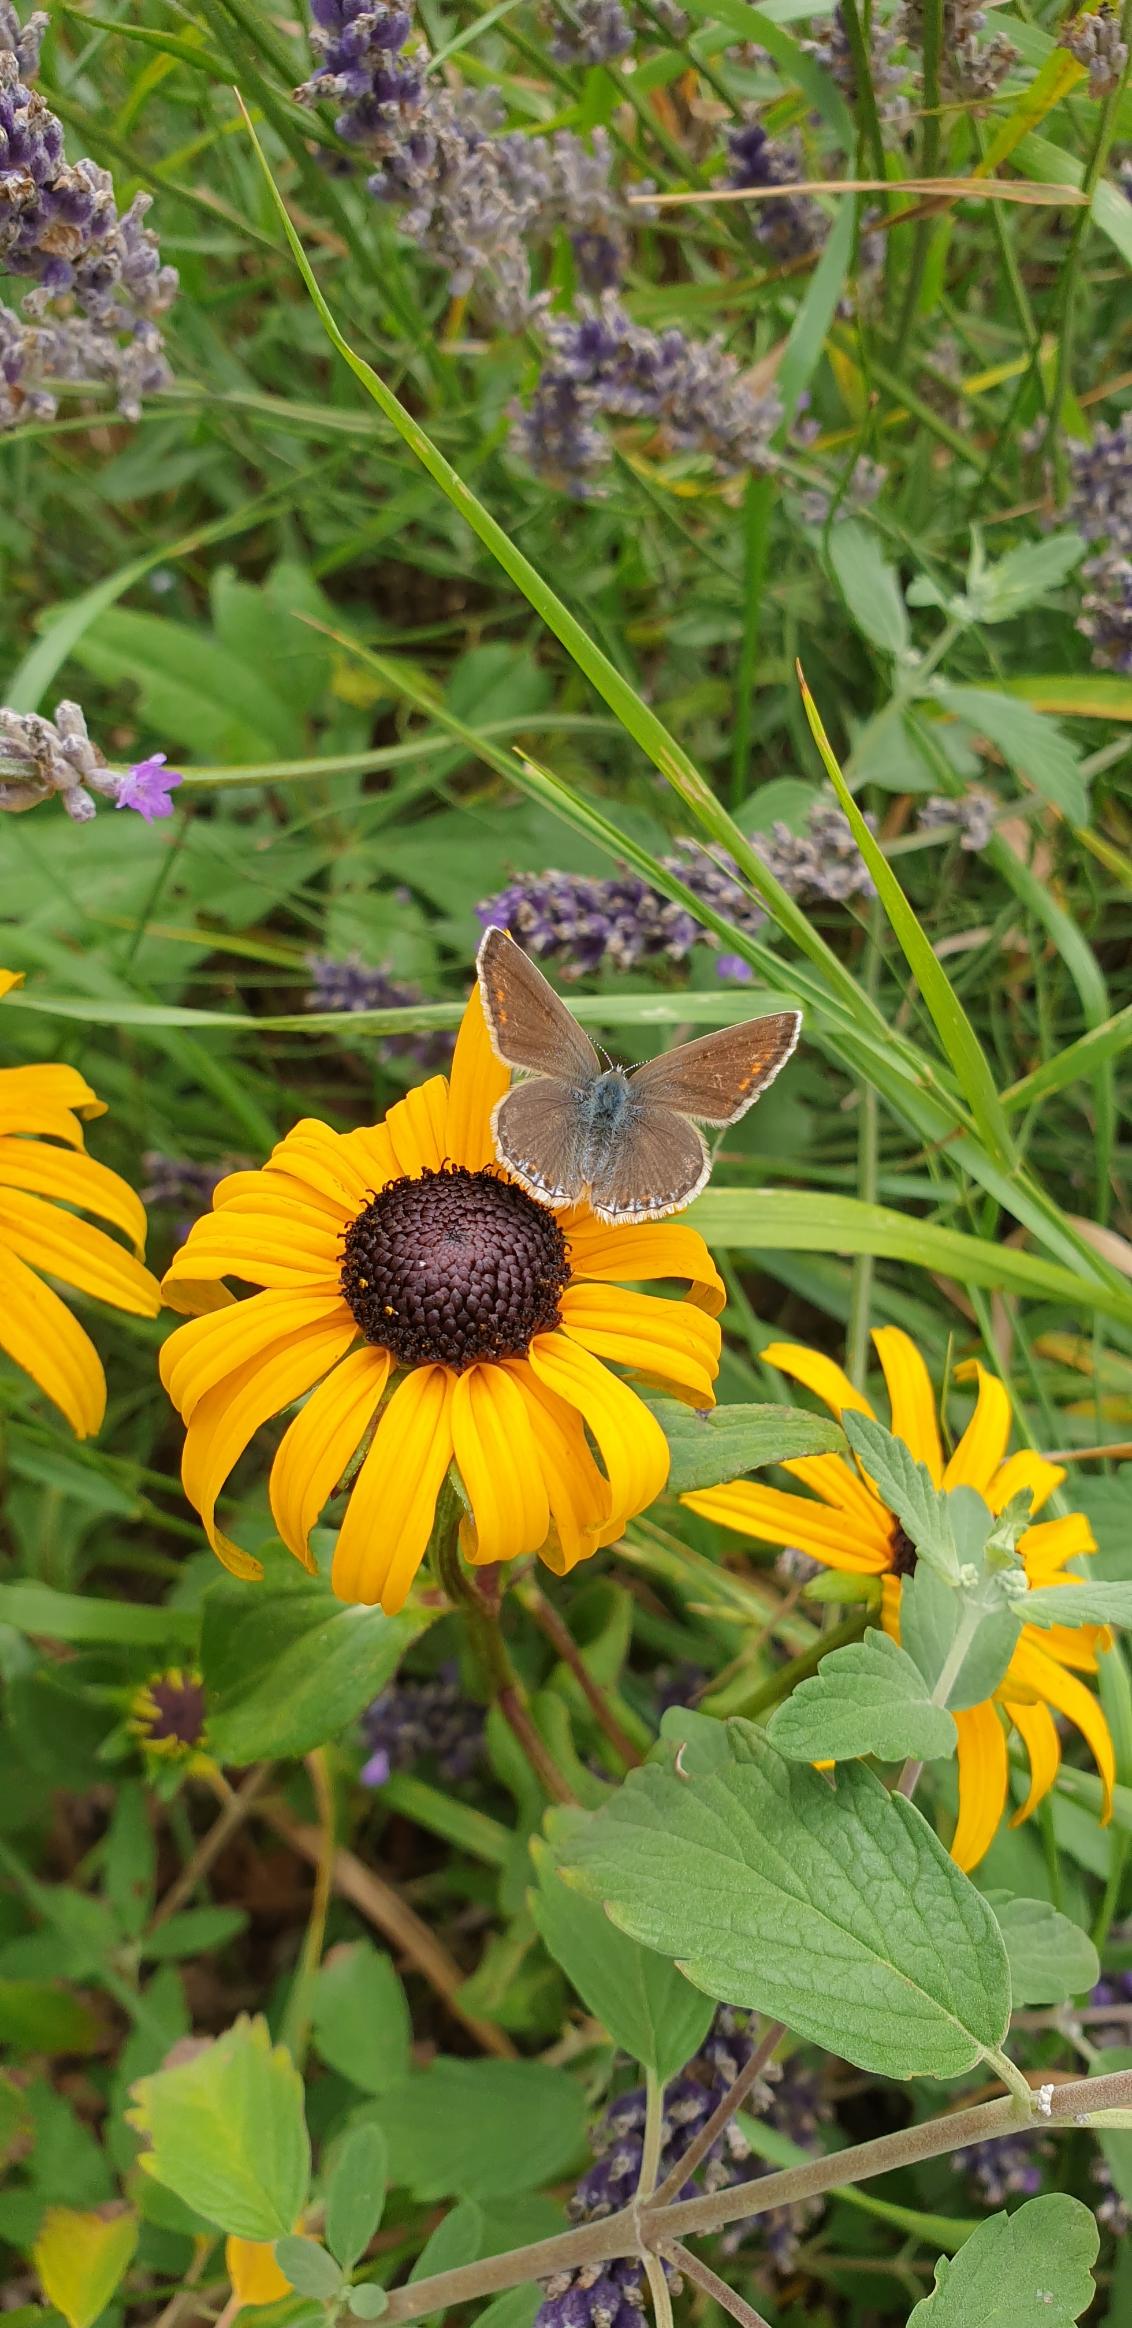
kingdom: Animalia
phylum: Arthropoda
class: Insecta
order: Lepidoptera
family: Lycaenidae
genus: Polyommatus
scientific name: Polyommatus icarus
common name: Almindelig blåfugl
